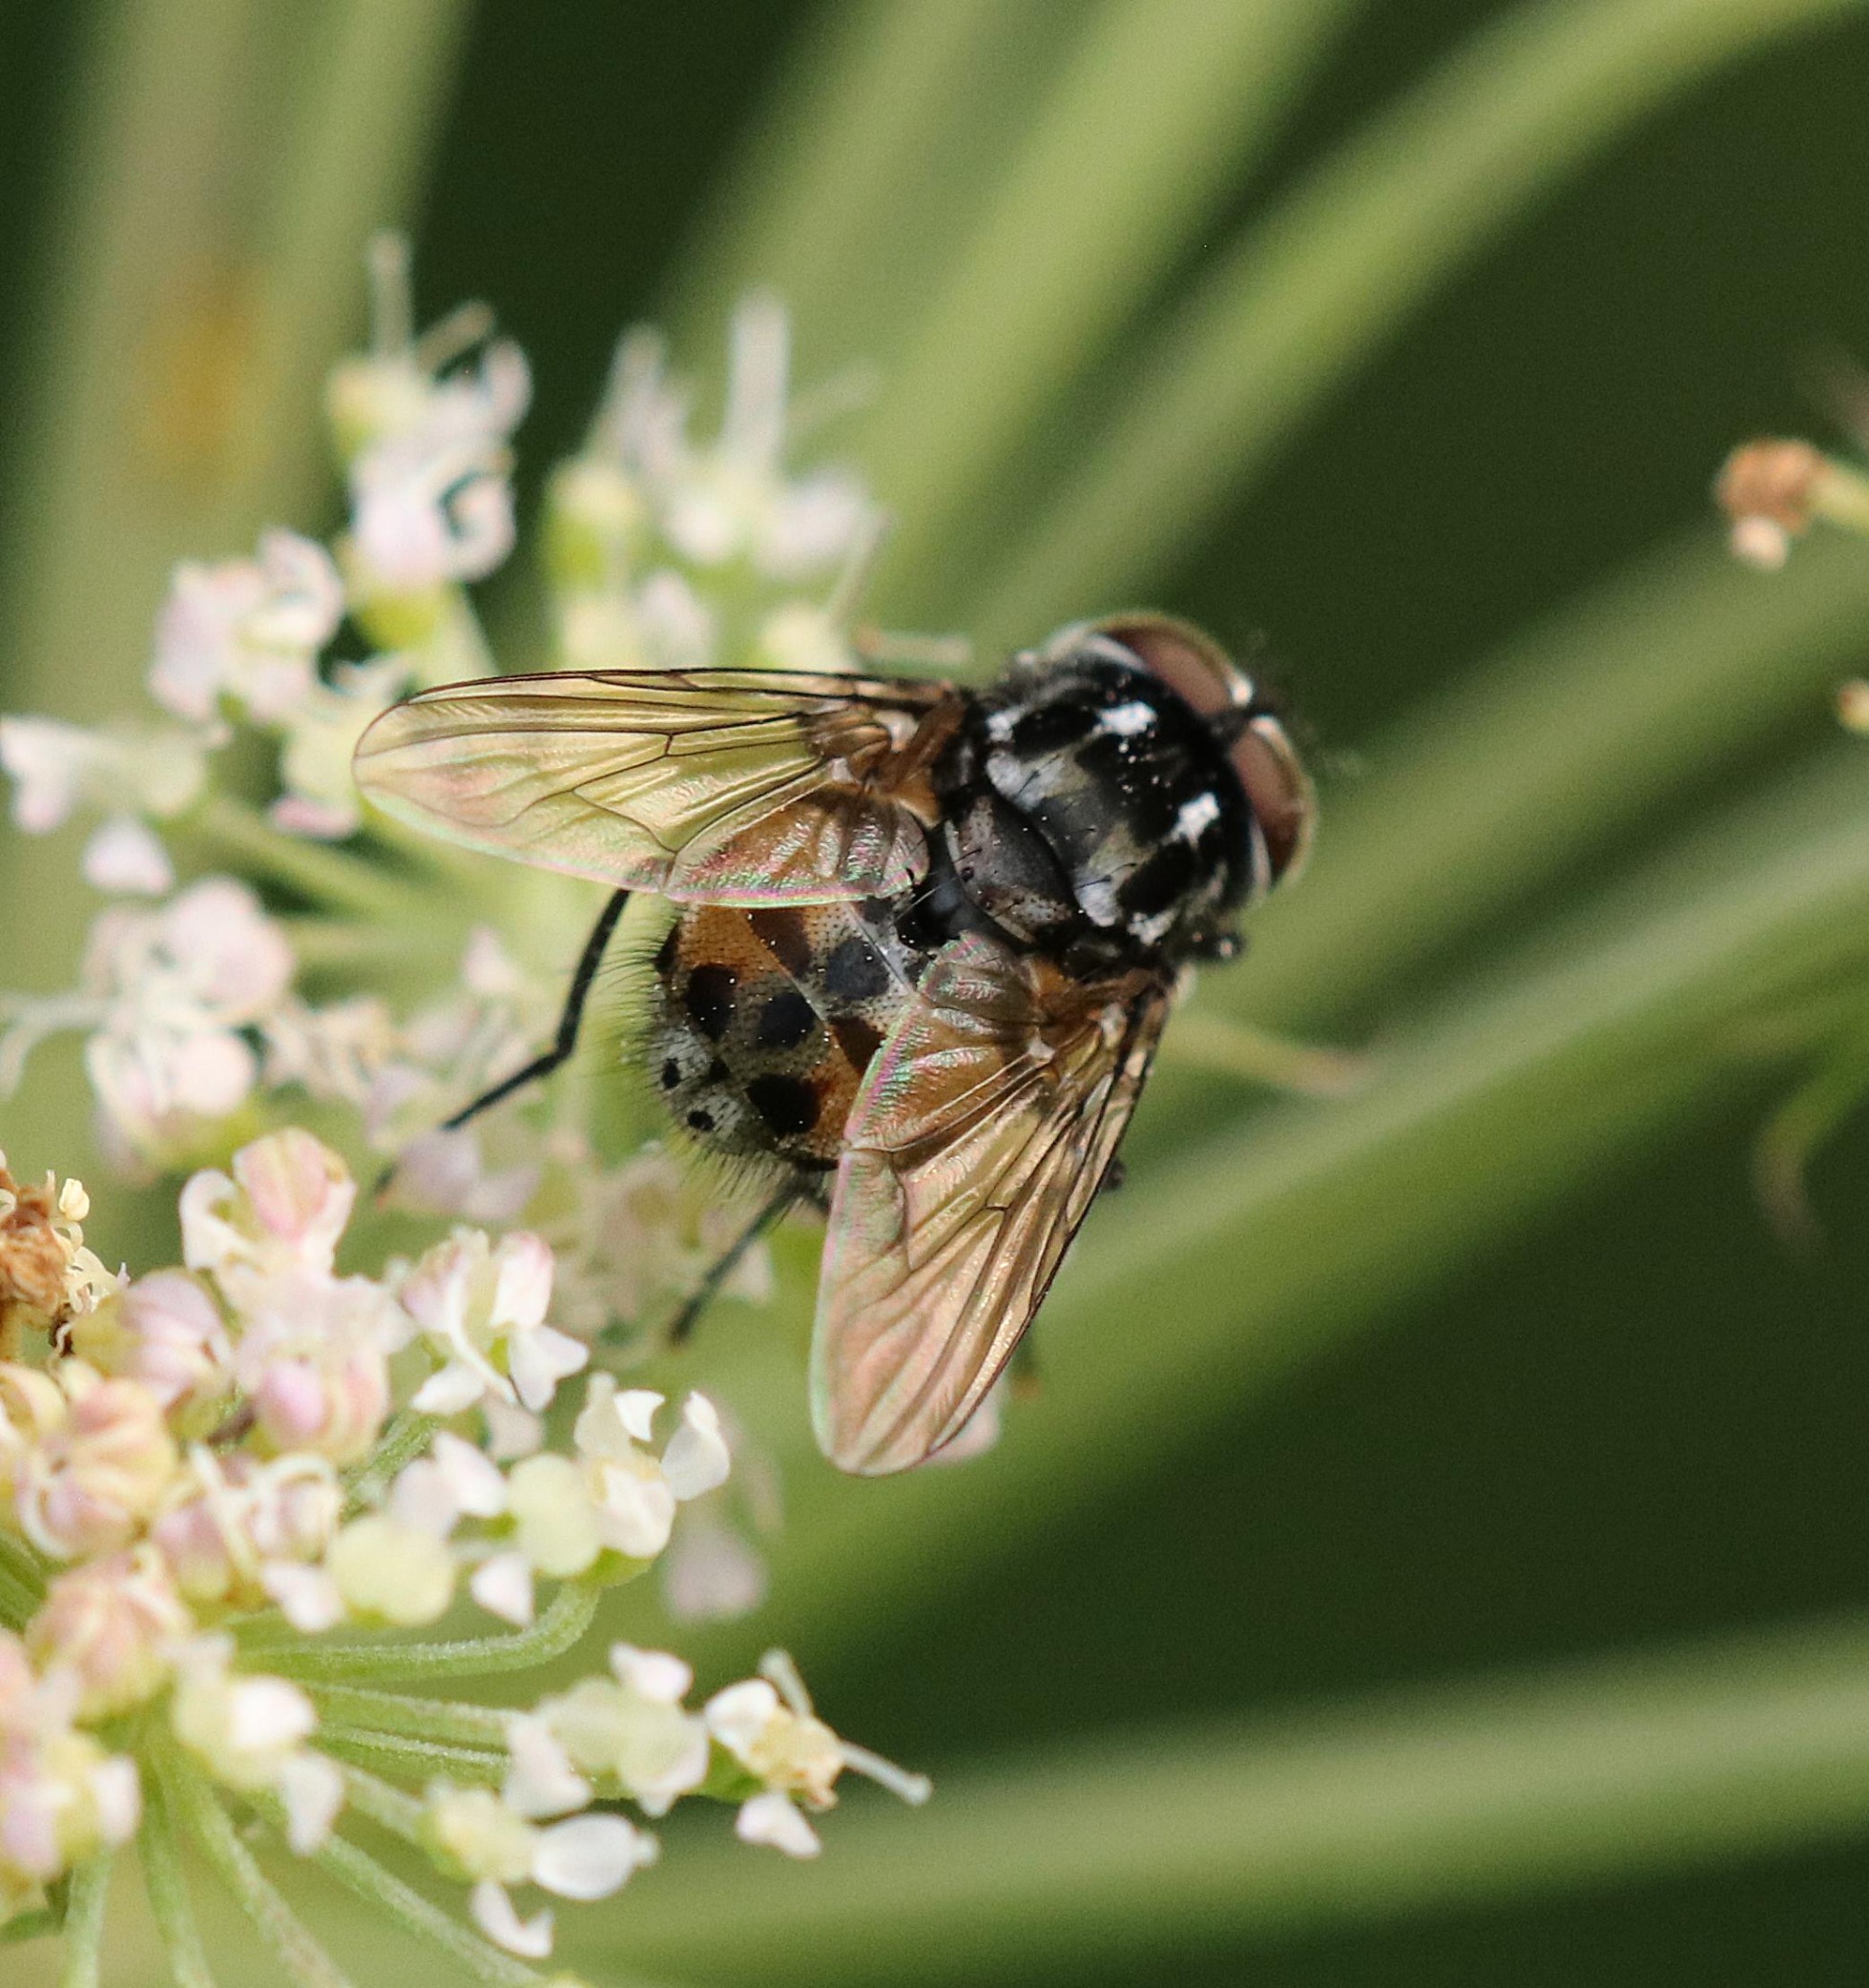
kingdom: Animalia
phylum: Arthropoda
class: Insecta
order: Diptera
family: Muscidae
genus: Graphomya
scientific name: Graphomya maculata
